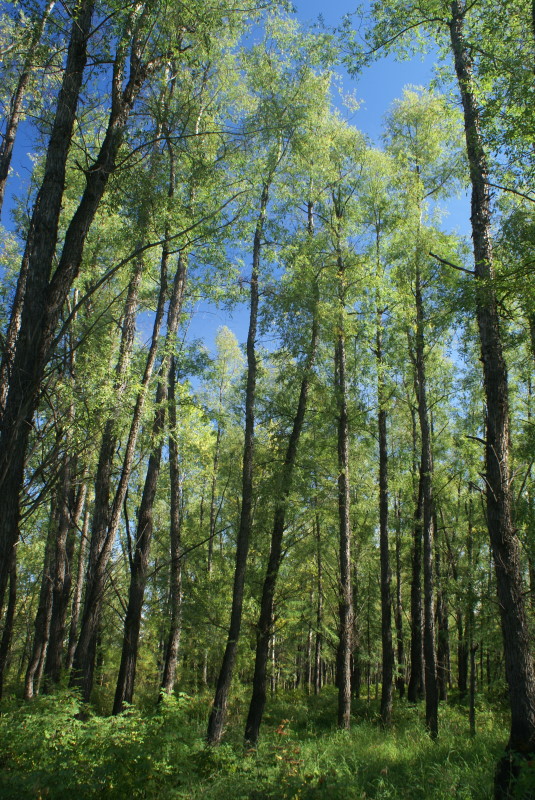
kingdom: Plantae
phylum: Tracheophyta
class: Magnoliopsida
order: Malpighiales
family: Salicaceae
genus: Chosenia
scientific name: Chosenia arbutifolia
